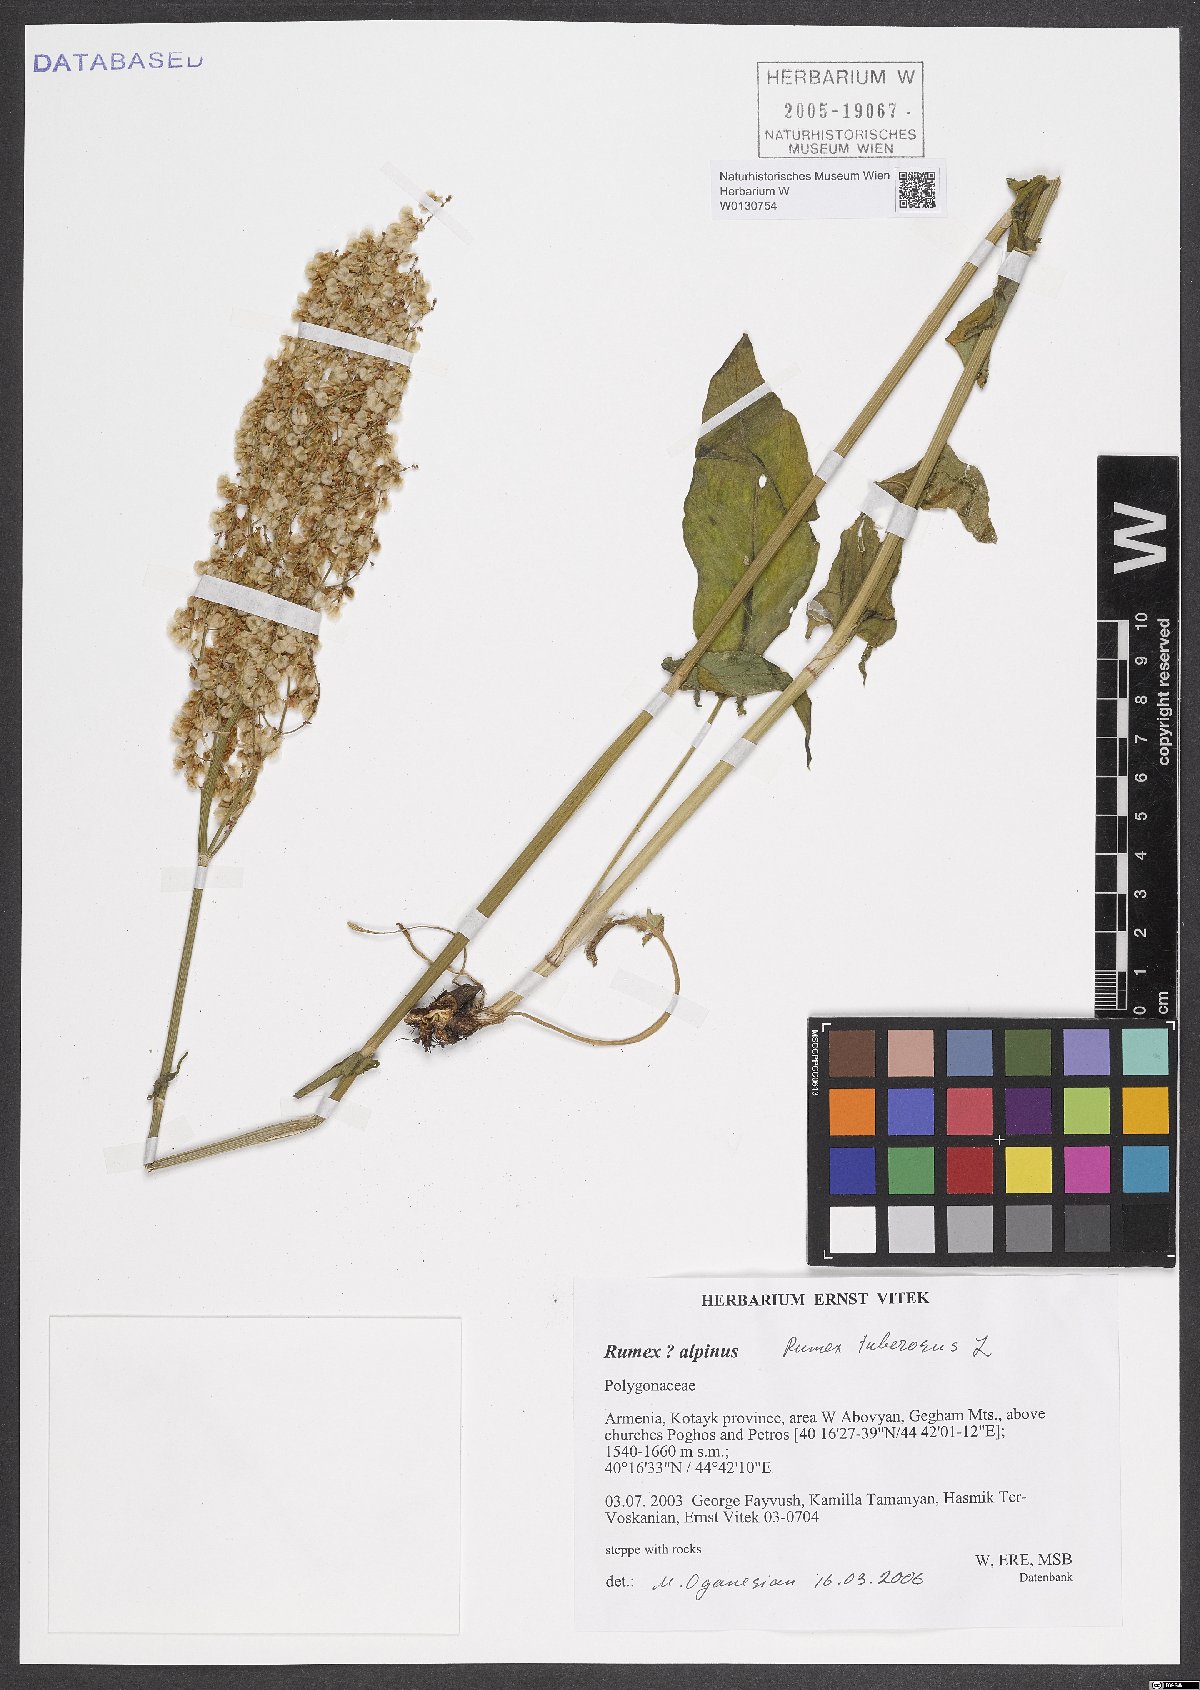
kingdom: Plantae
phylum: Tracheophyta
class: Magnoliopsida
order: Caryophyllales
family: Polygonaceae
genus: Rumex
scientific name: Rumex tuberosus
